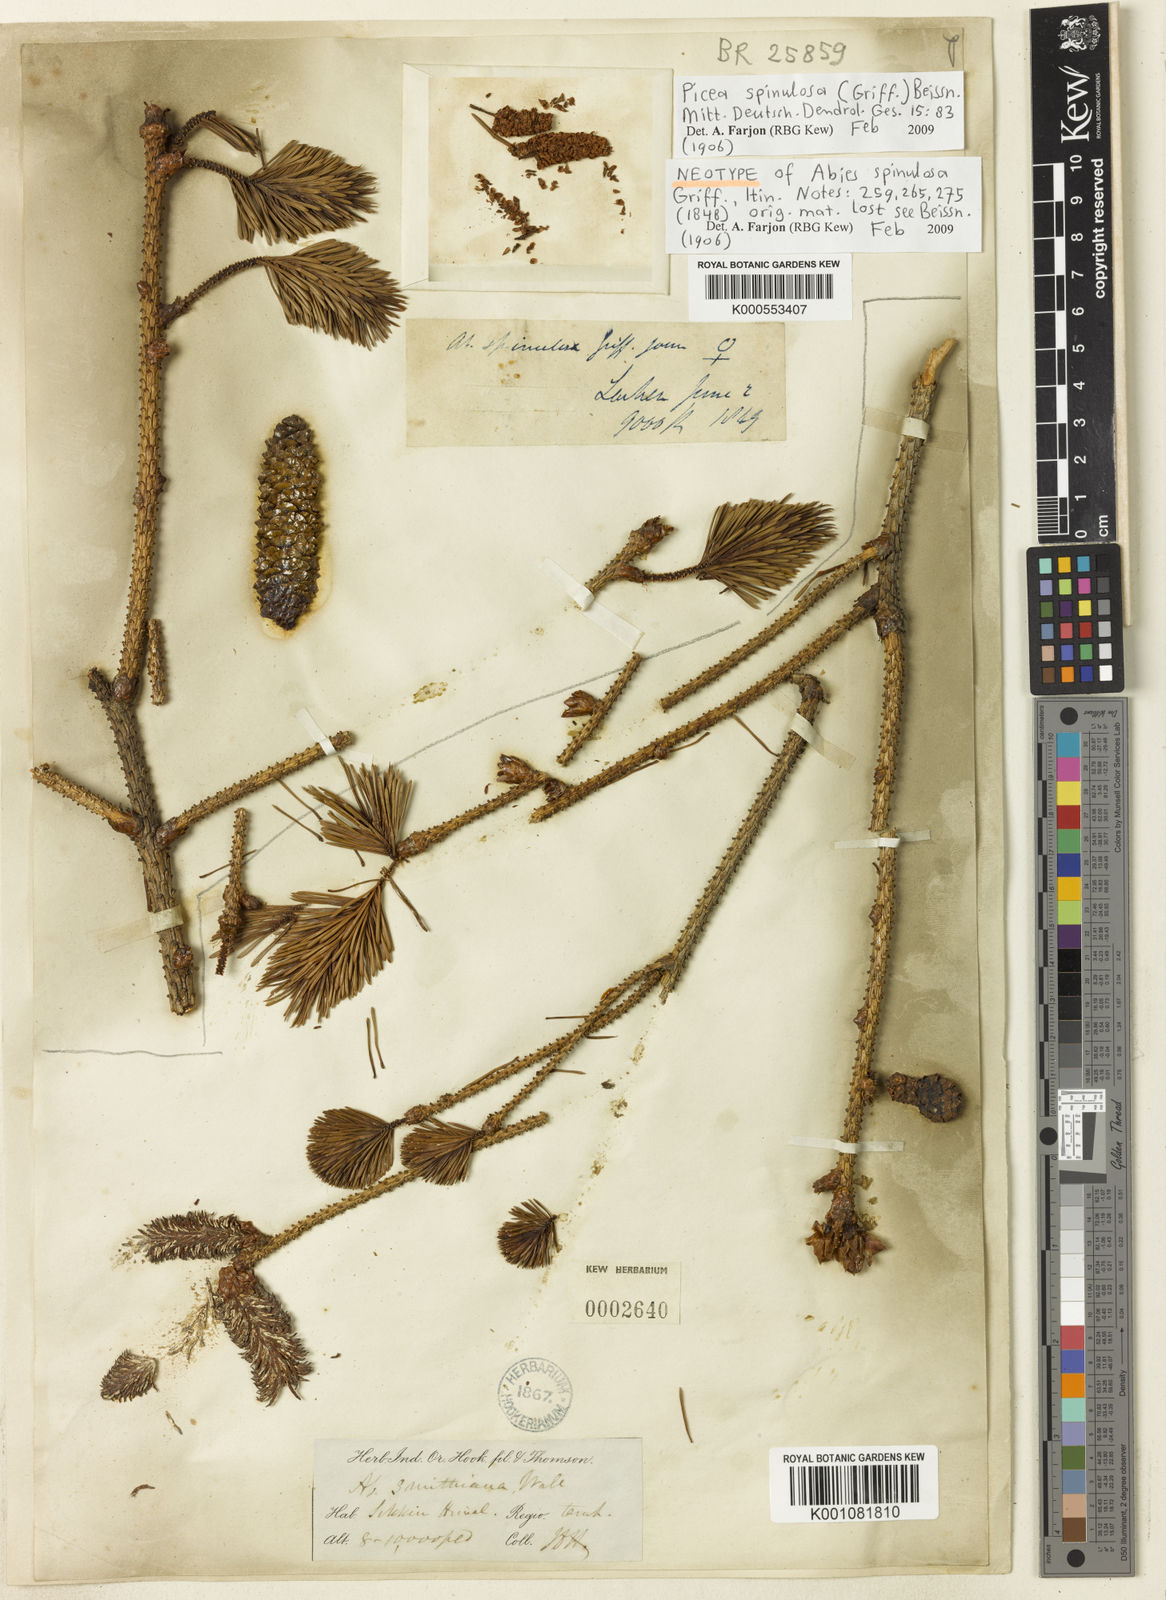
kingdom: Plantae
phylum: Tracheophyta
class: Pinopsida
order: Pinales
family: Pinaceae
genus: Picea
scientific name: Picea
